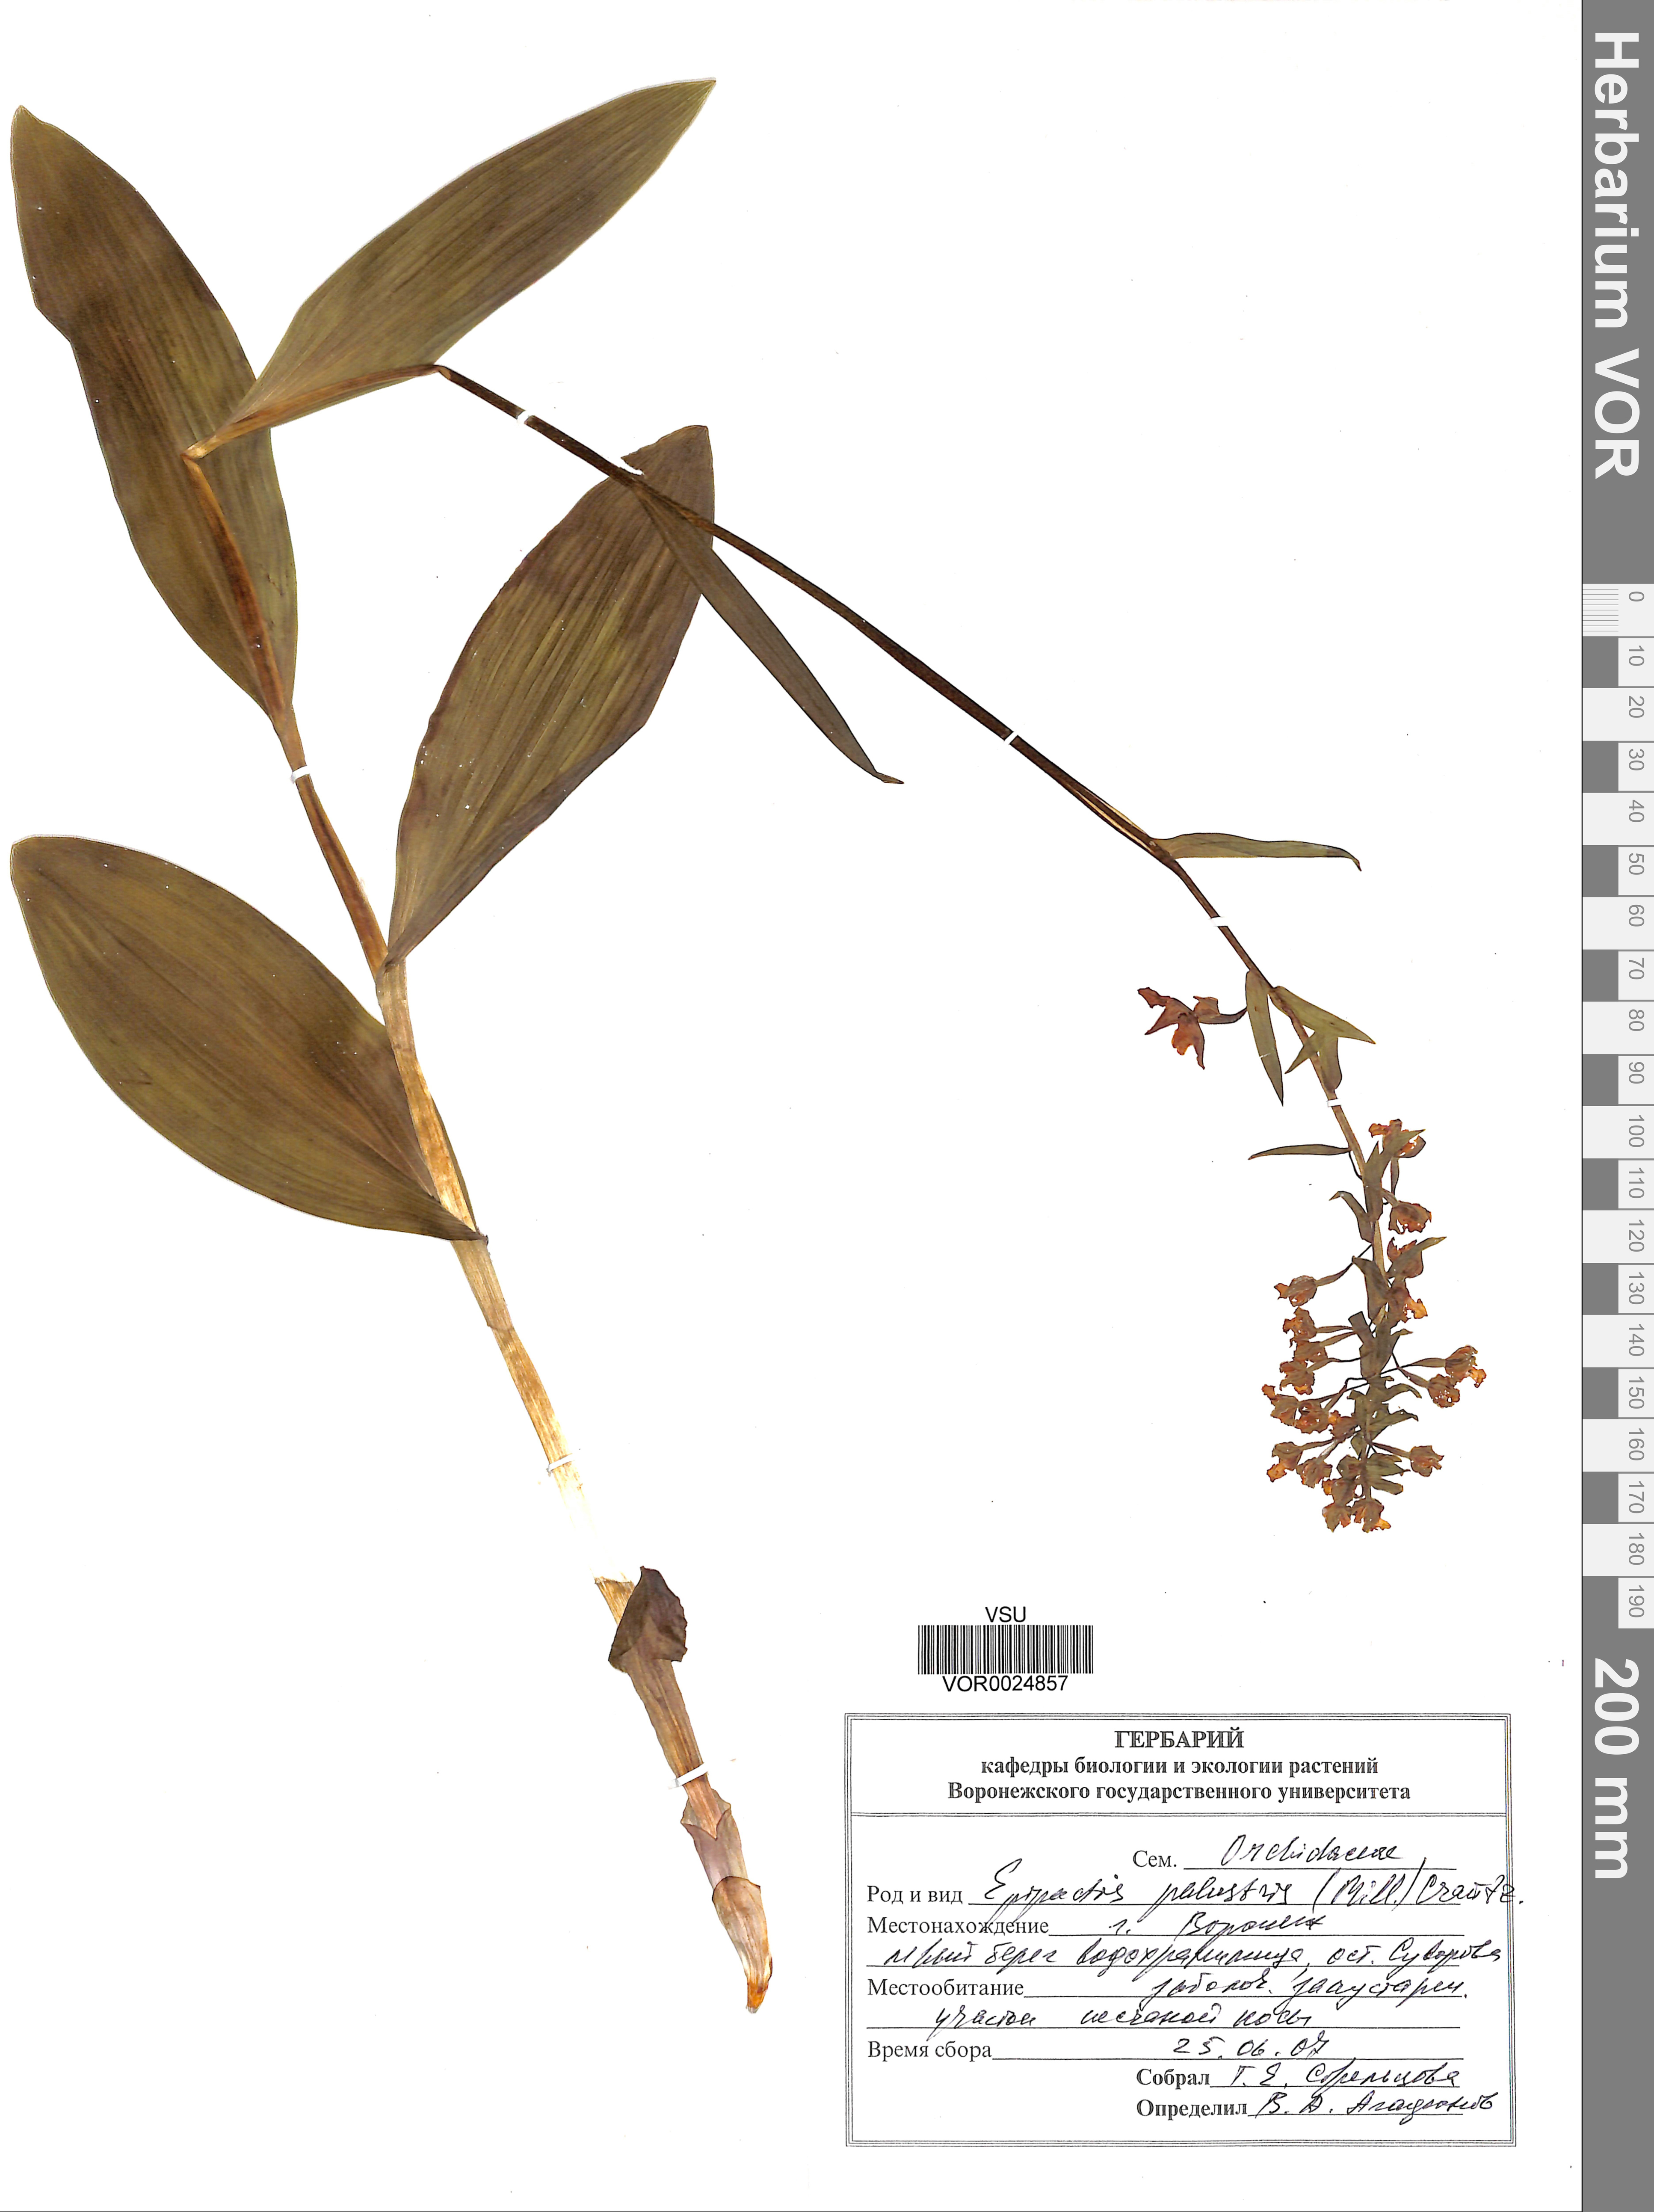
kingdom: Plantae
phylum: Tracheophyta
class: Liliopsida
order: Asparagales
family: Orchidaceae
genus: Epipactis
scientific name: Epipactis palustris
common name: Marsh helleborine
